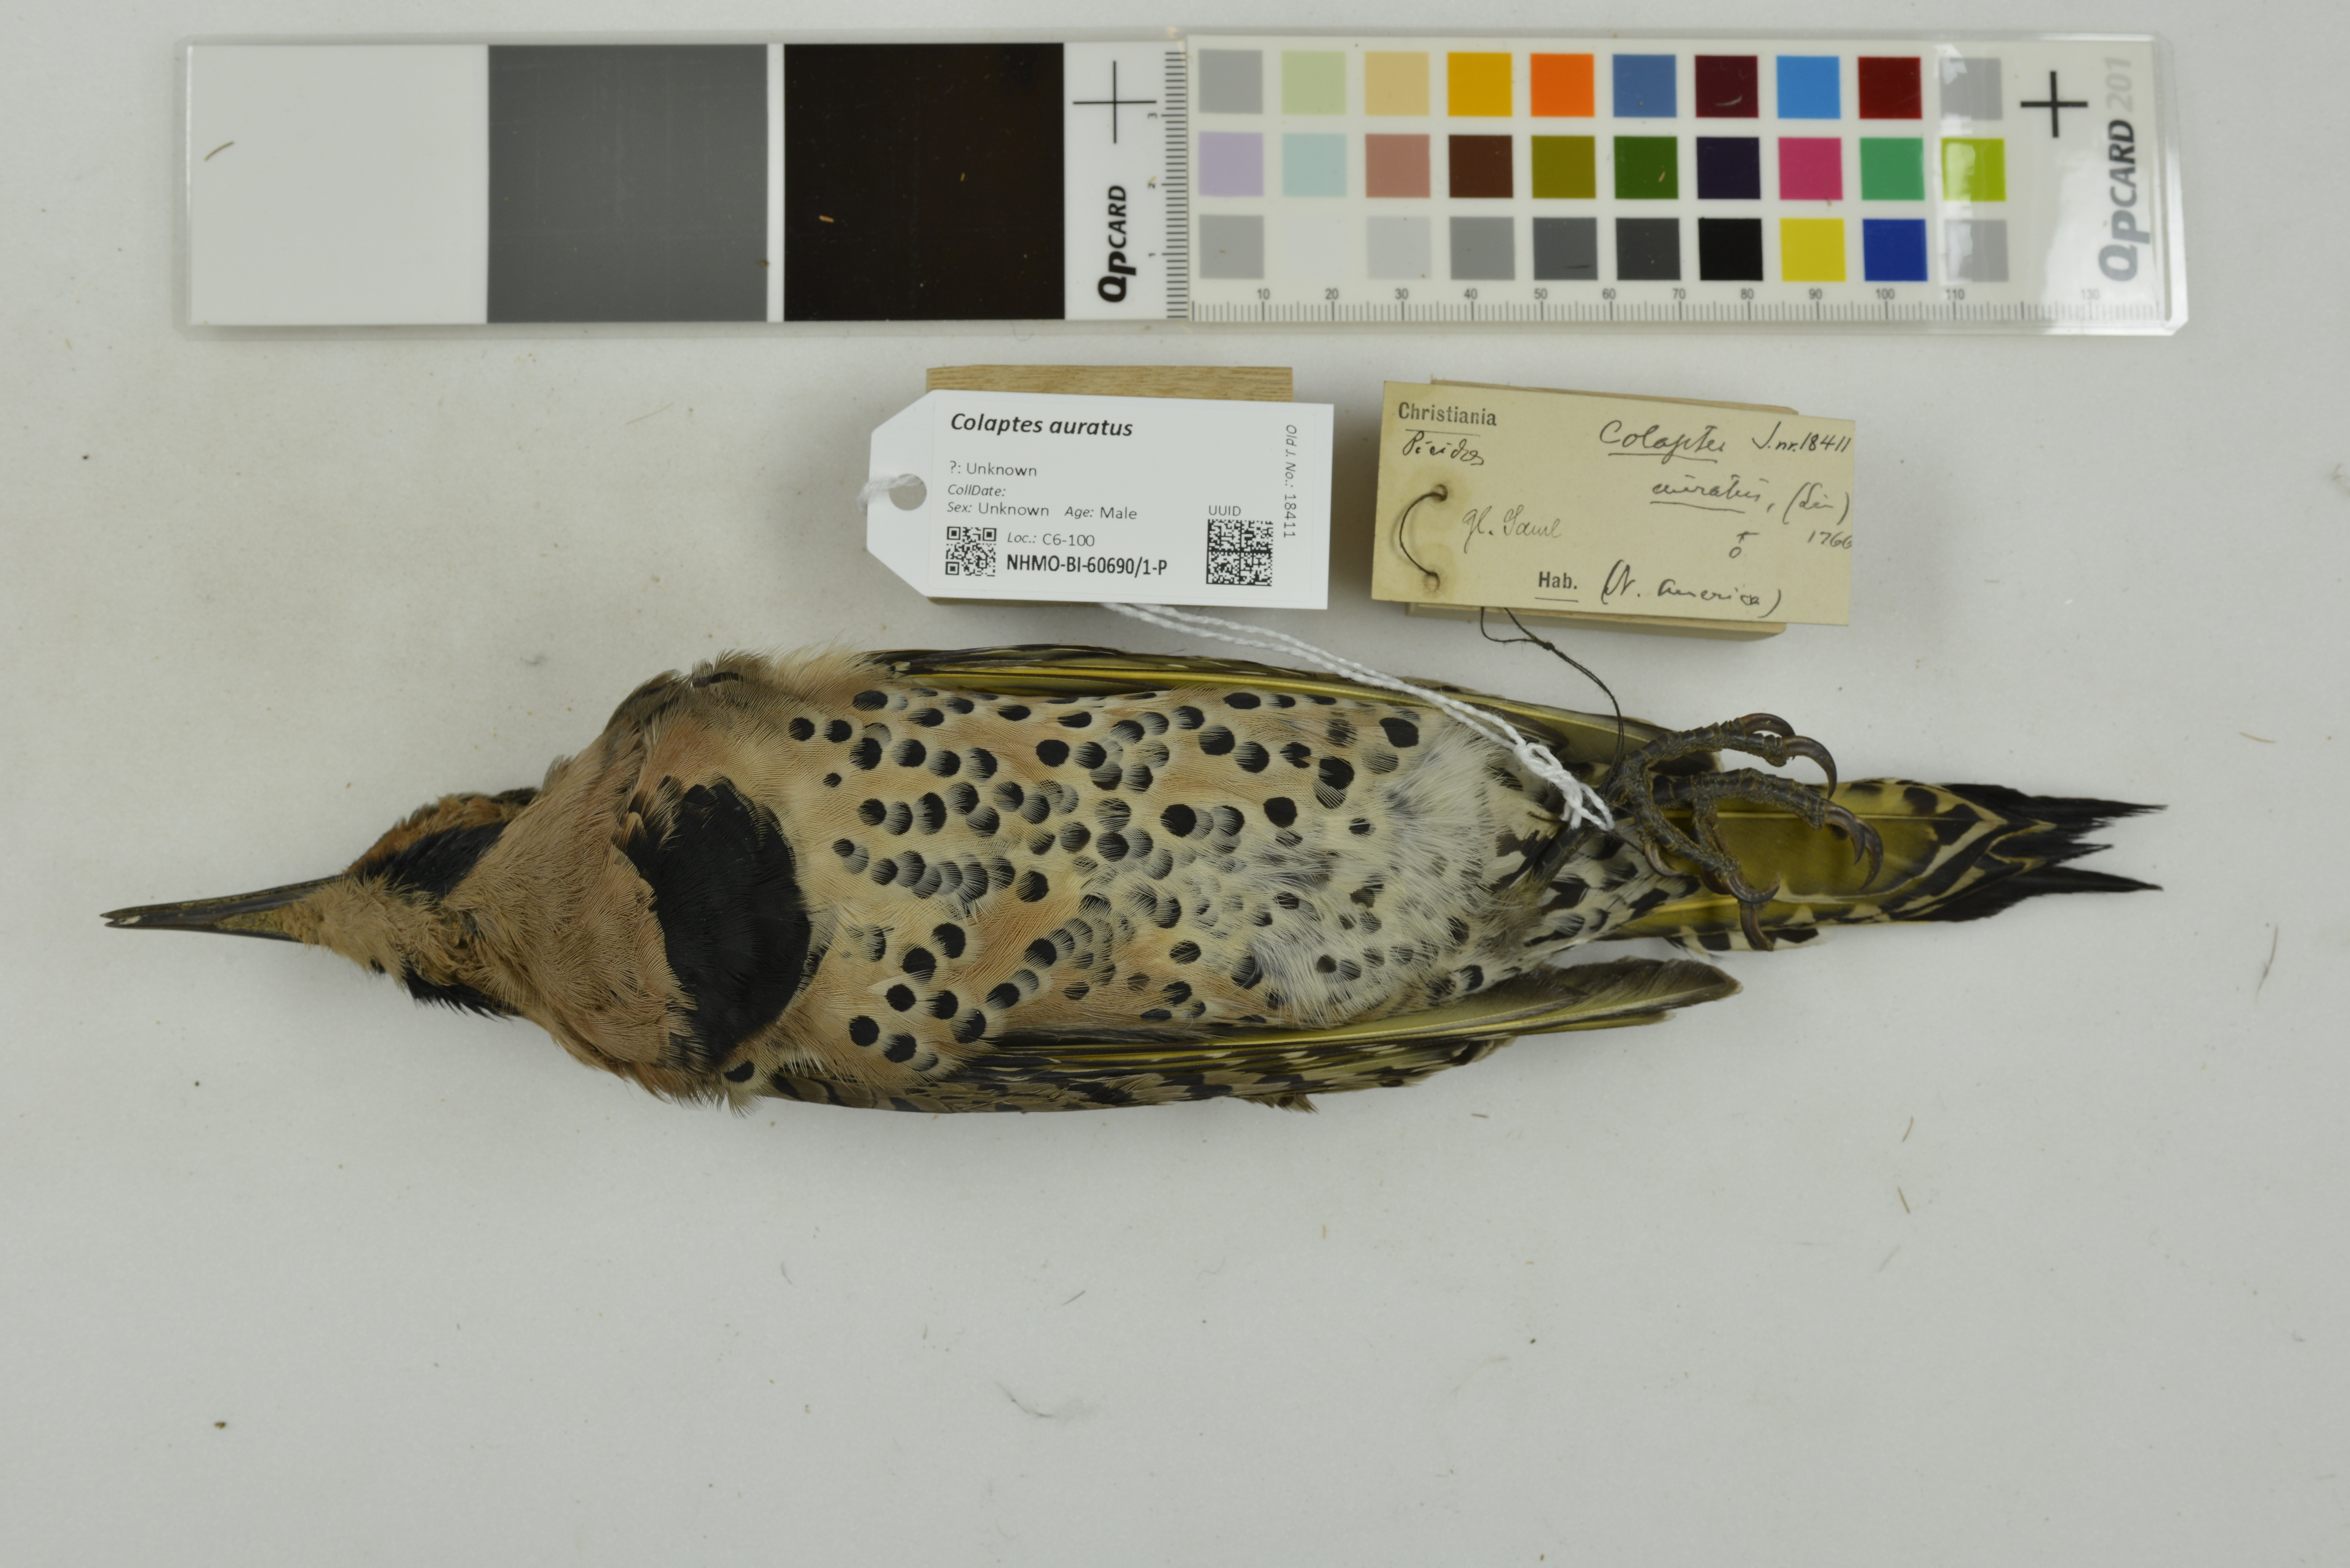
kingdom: Animalia
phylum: Chordata
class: Aves
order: Piciformes
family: Picidae
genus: Colaptes
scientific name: Colaptes auratus
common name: Northern flicker
